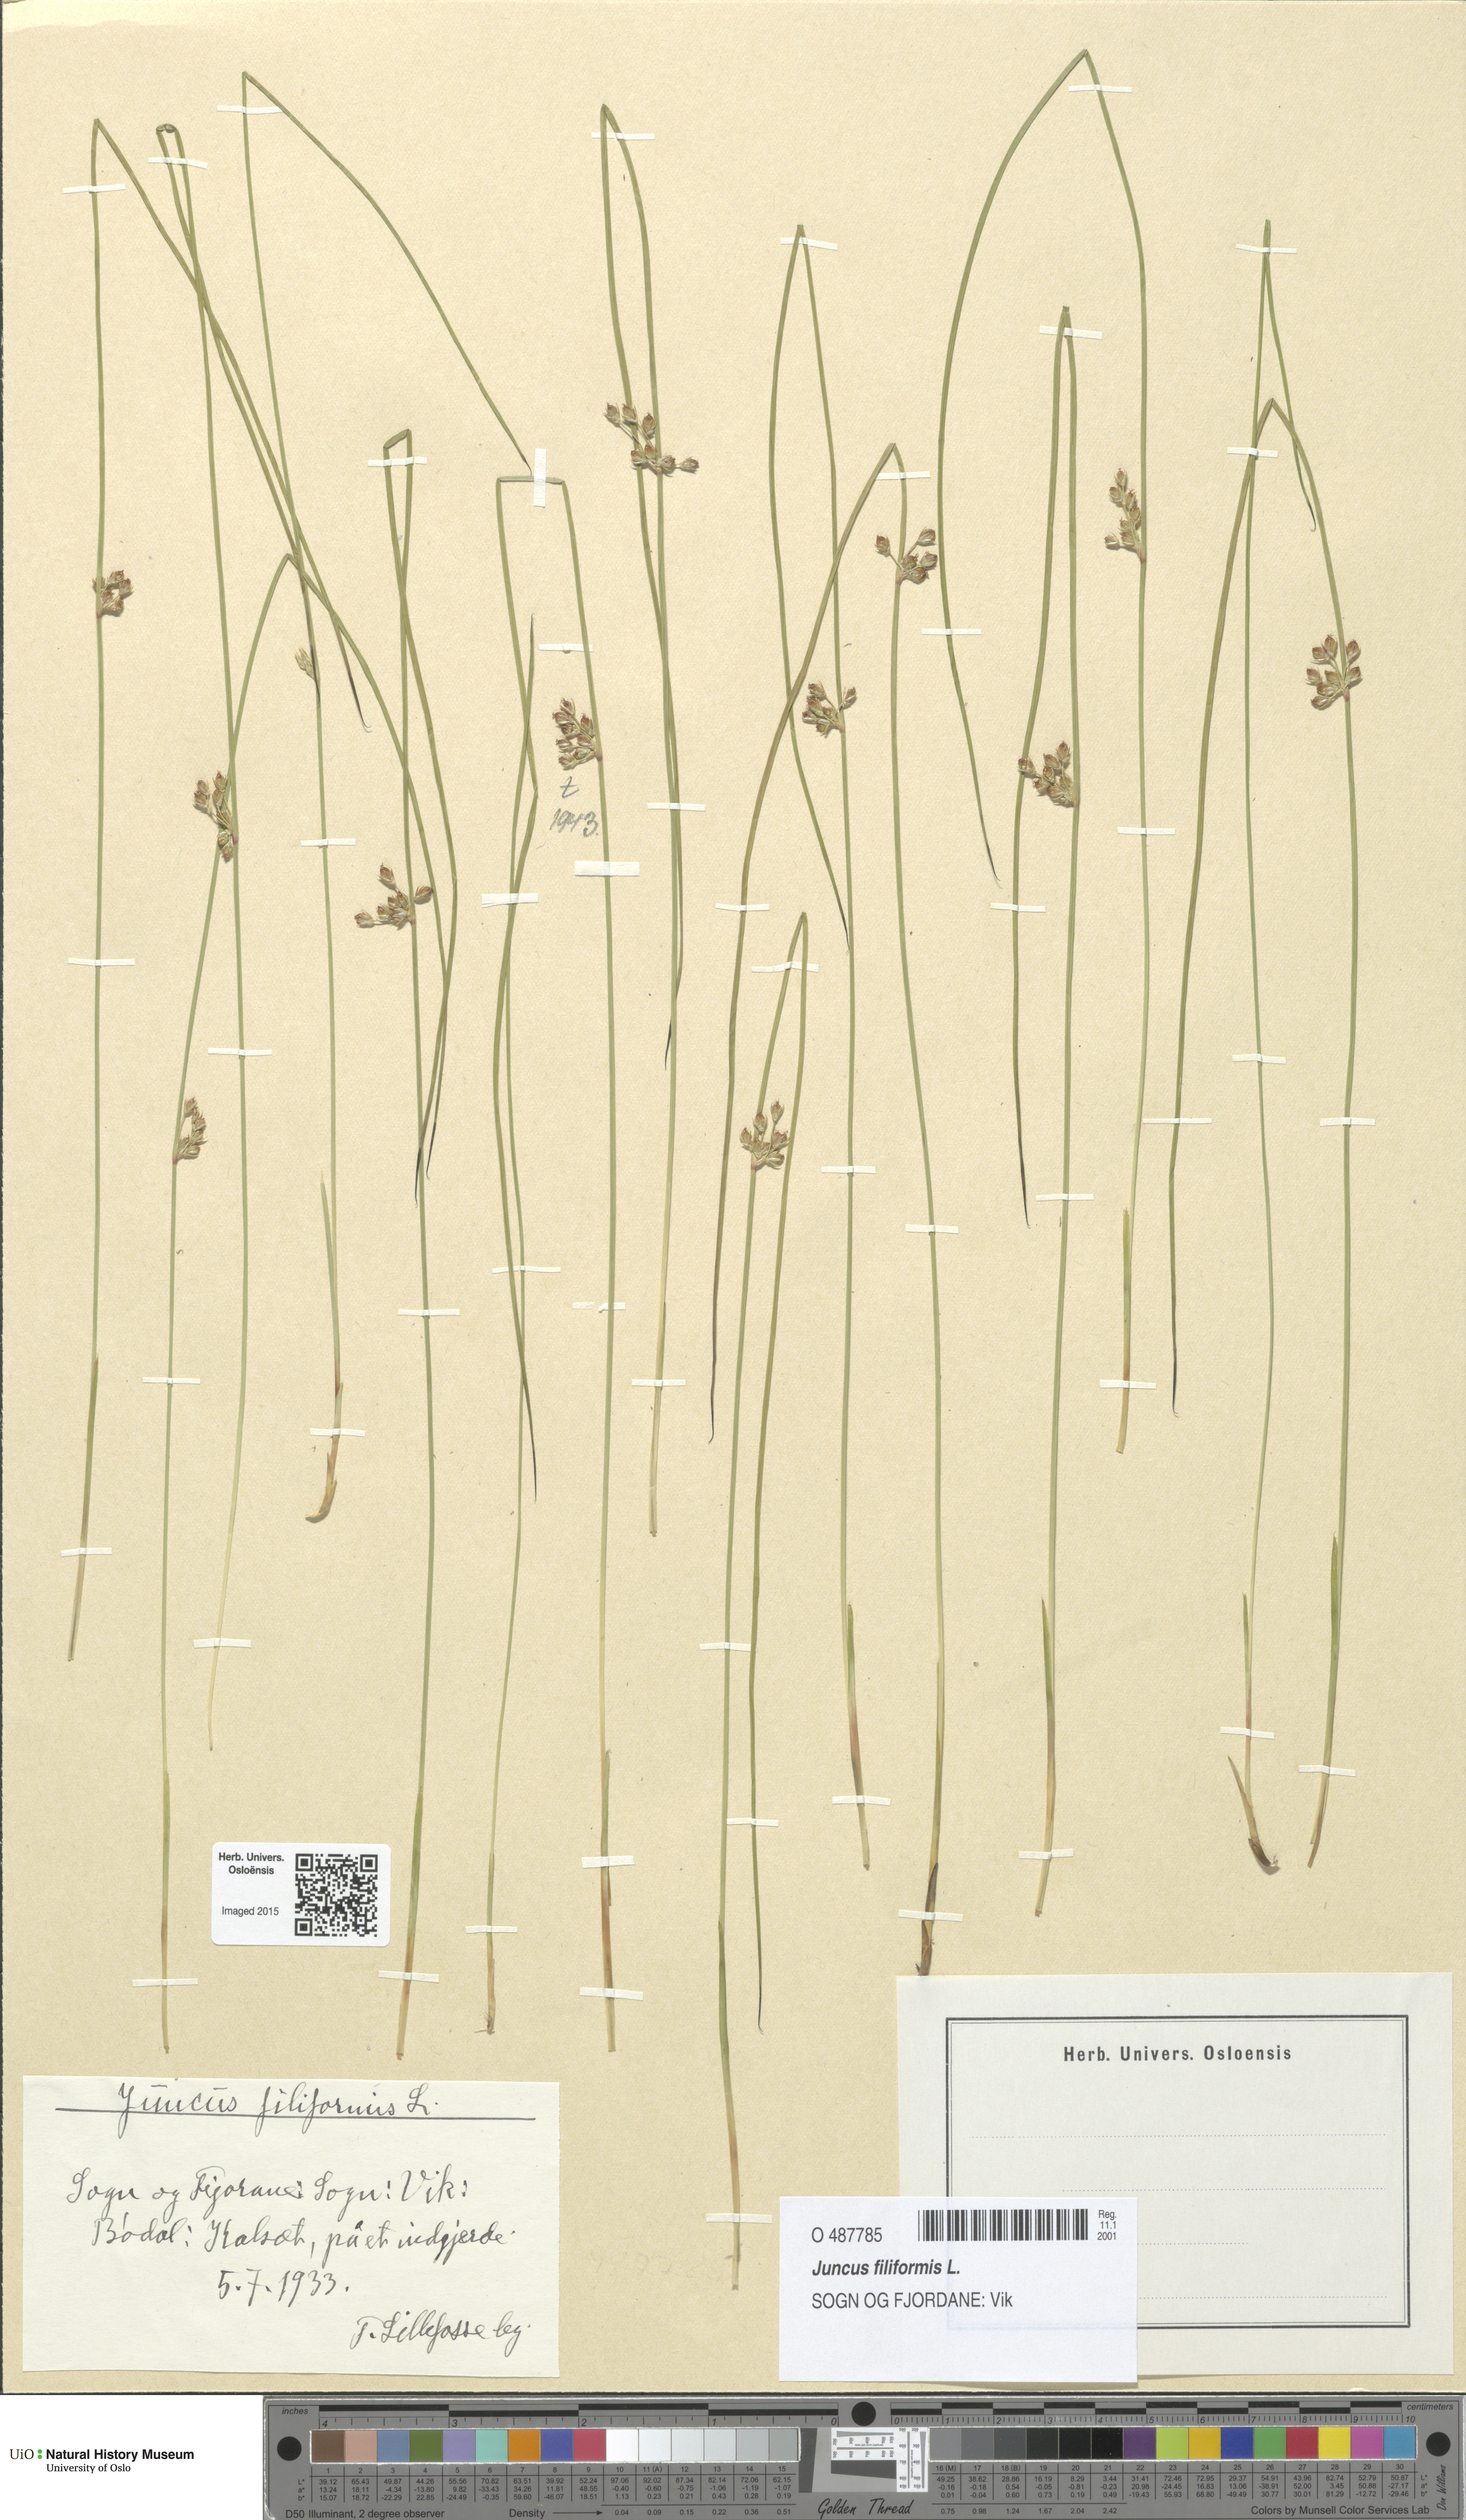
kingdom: Plantae
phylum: Tracheophyta
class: Liliopsida
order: Poales
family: Juncaceae
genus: Juncus
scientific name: Juncus filiformis
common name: Thread rush
